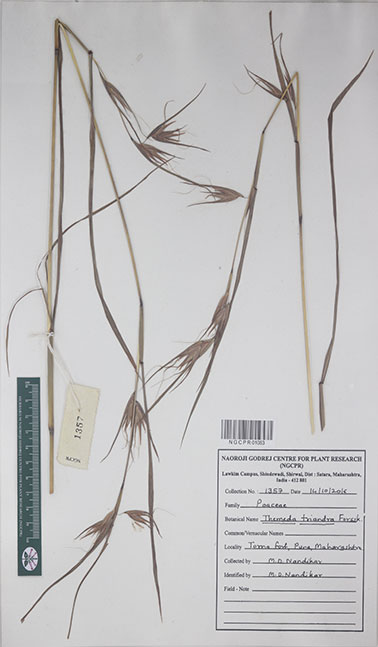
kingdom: Plantae
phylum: Tracheophyta
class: Liliopsida
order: Poales
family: Poaceae
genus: Themeda
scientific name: Themeda triandra
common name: Kangaroo grass
